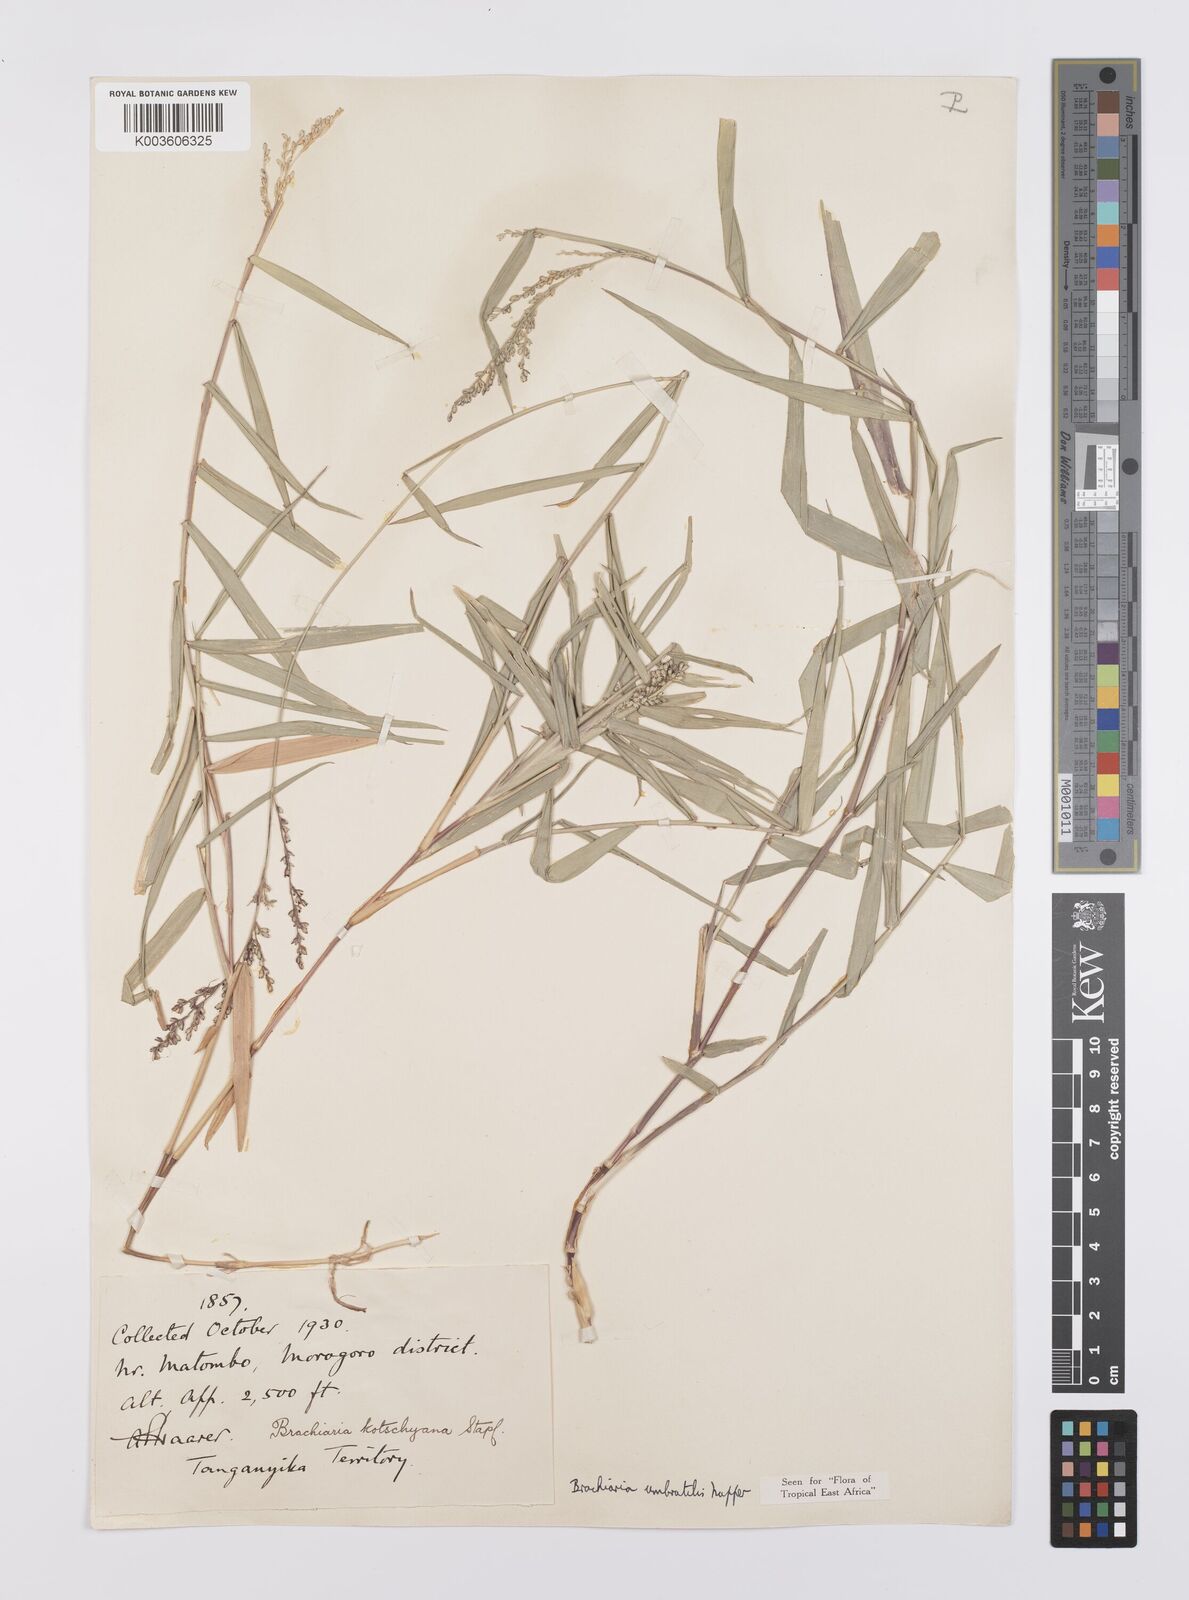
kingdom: Plantae
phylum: Tracheophyta
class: Liliopsida
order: Poales
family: Poaceae
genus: Urochloa
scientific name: Urochloa Brachiaria umbratilis
